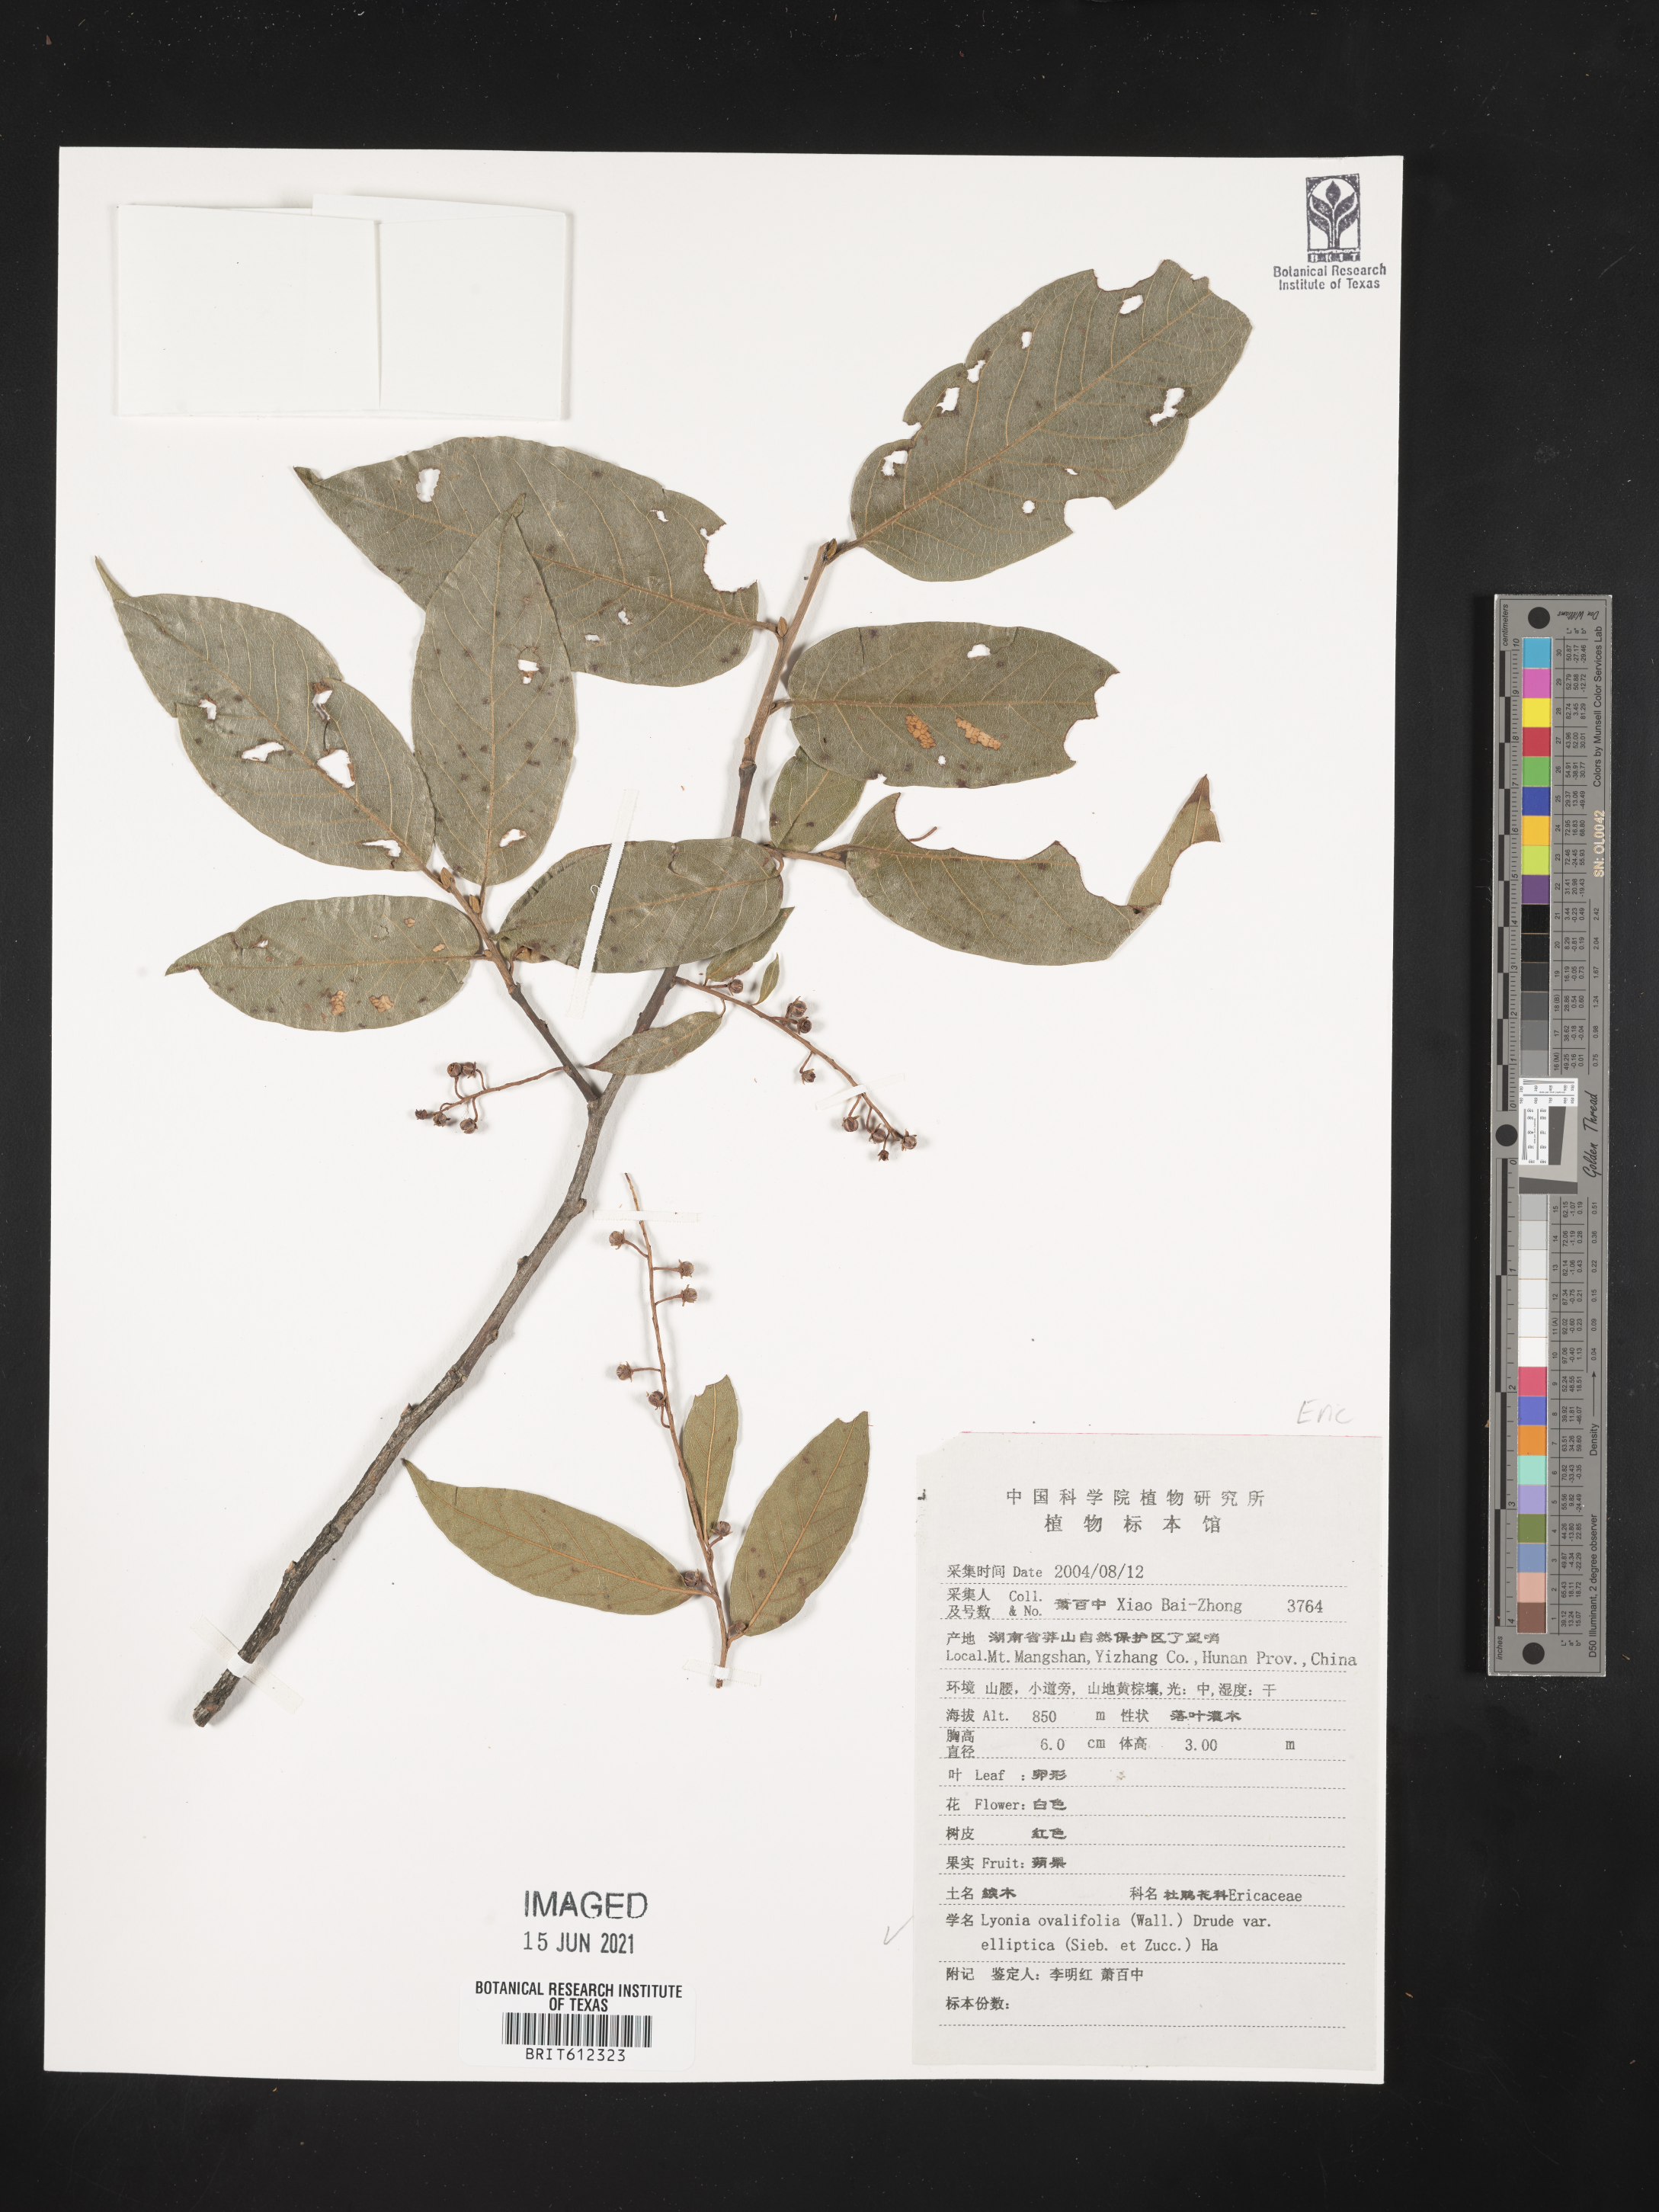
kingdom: Plantae
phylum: Tracheophyta
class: Magnoliopsida
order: Ericales
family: Ericaceae
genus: Lyonia
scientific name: Lyonia ovalifolia
